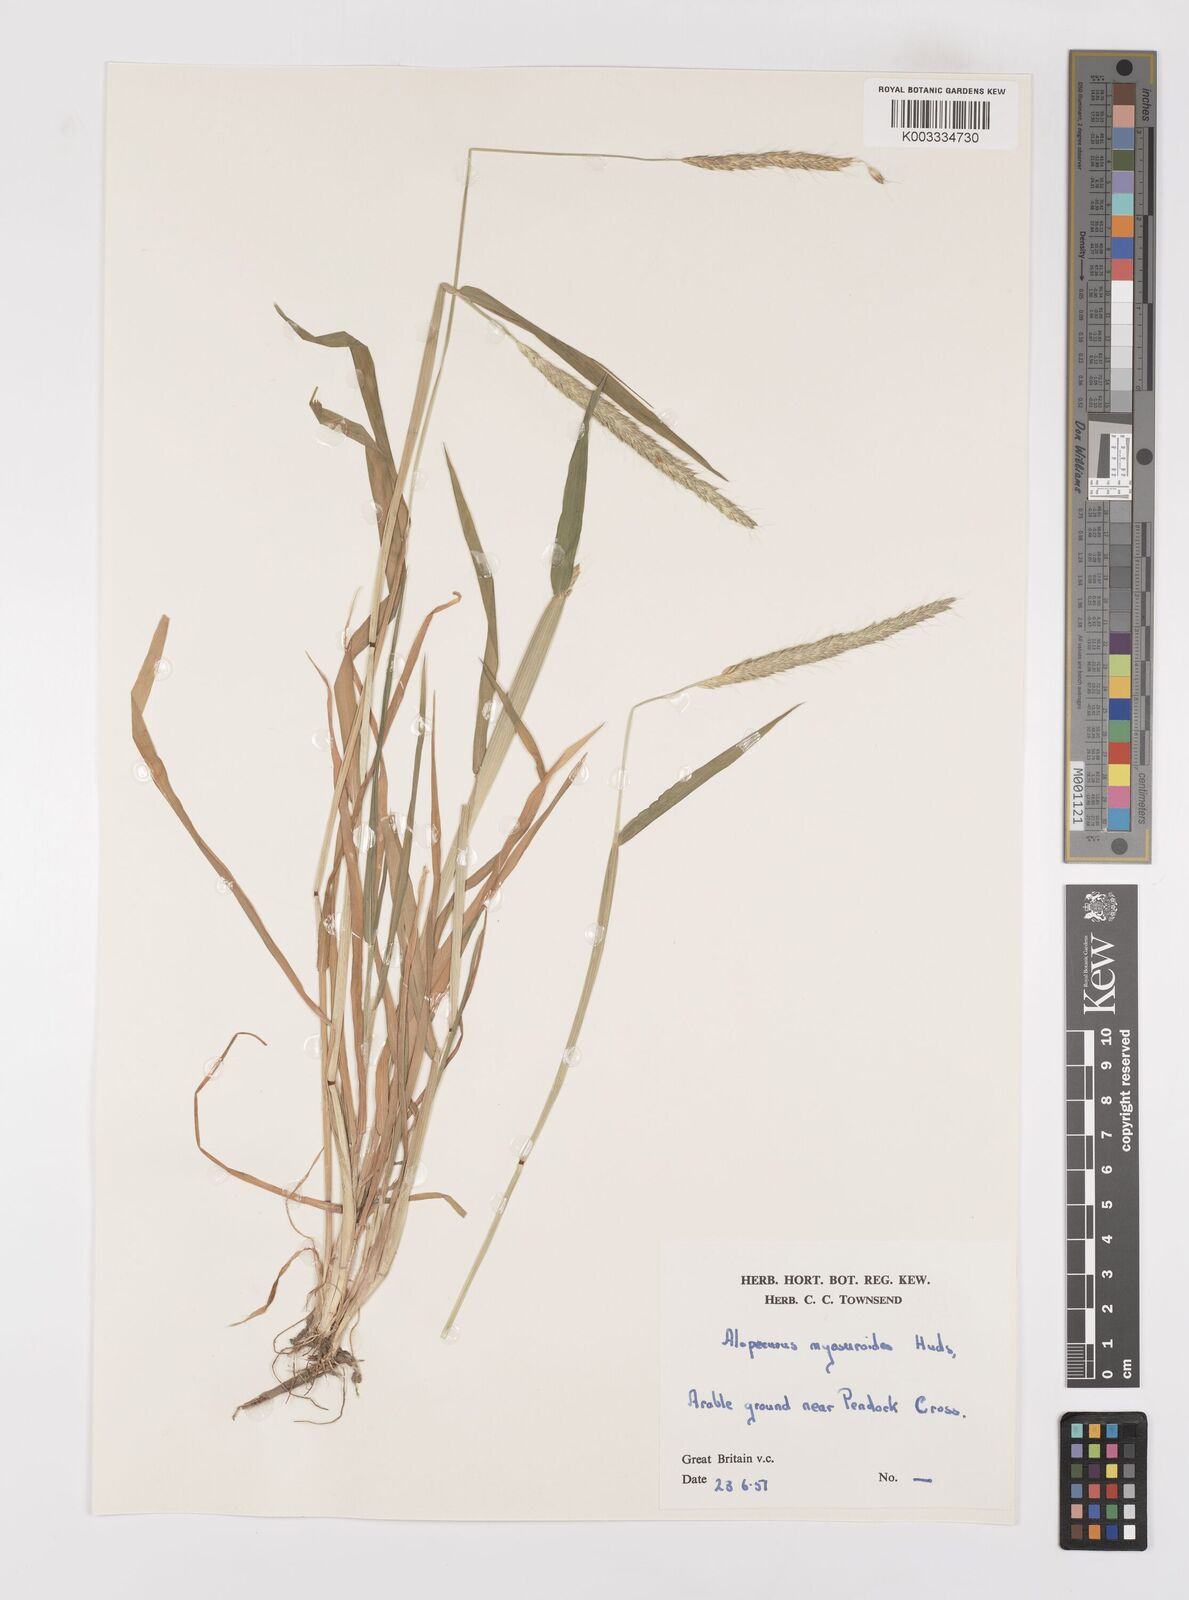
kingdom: Plantae
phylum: Tracheophyta
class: Liliopsida
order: Poales
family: Poaceae
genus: Alopecurus
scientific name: Alopecurus myosuroides
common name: Black-grass
